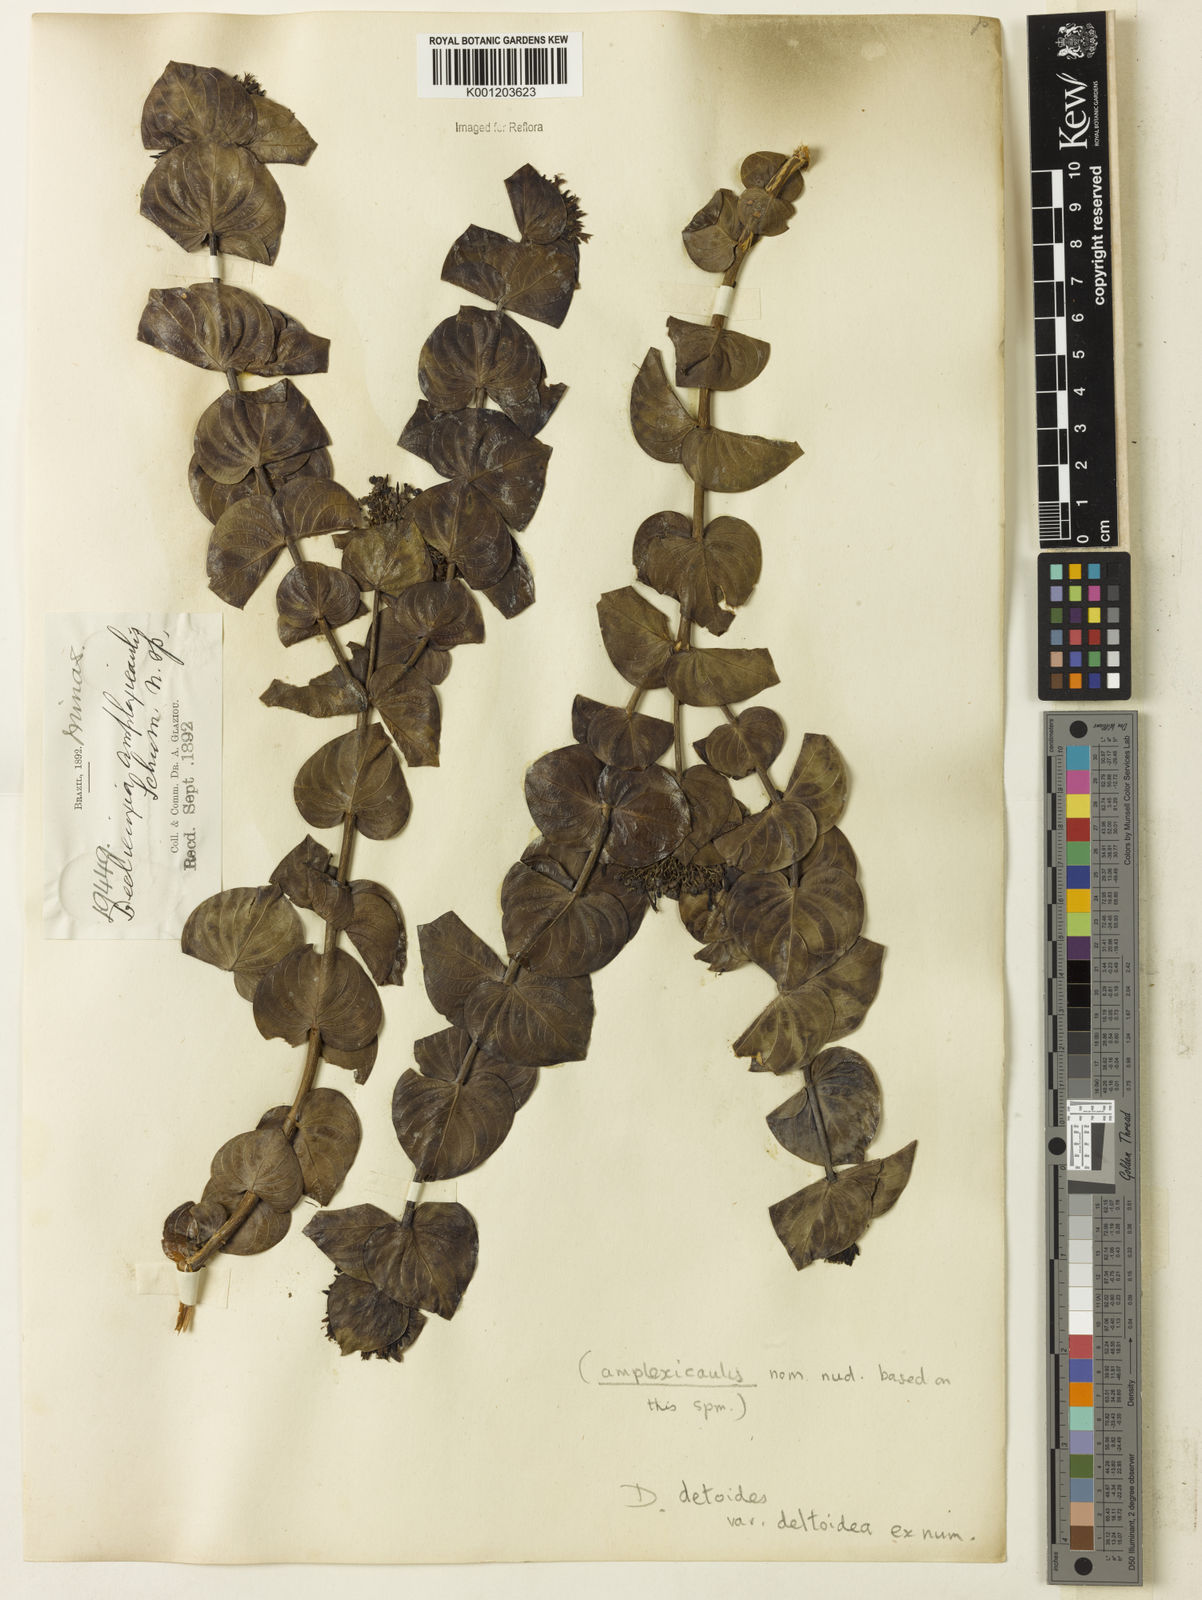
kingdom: Plantae
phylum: Tracheophyta
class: Magnoliopsida
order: Gentianales
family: Rubiaceae
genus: Declieuxia
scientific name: Declieuxia
